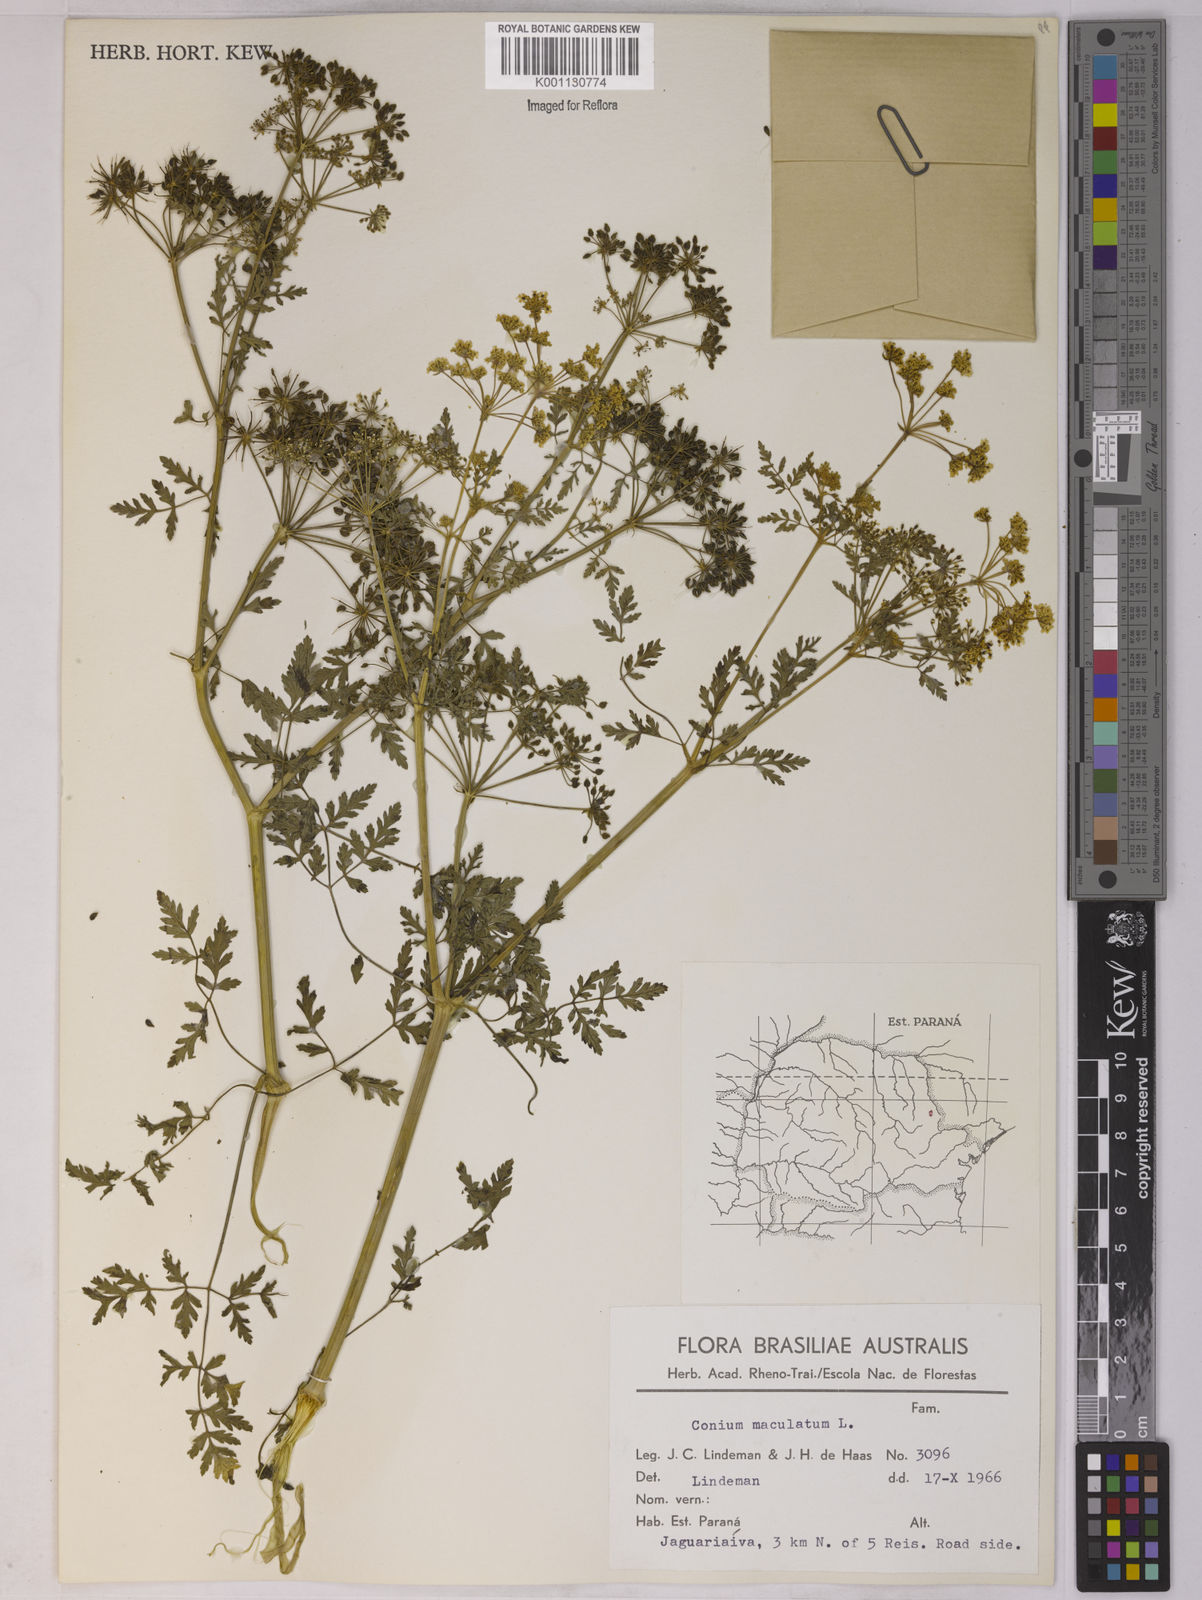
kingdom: Plantae
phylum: Tracheophyta
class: Magnoliopsida
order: Apiales
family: Apiaceae
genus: Conium
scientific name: Conium maculatum
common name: Hemlock
